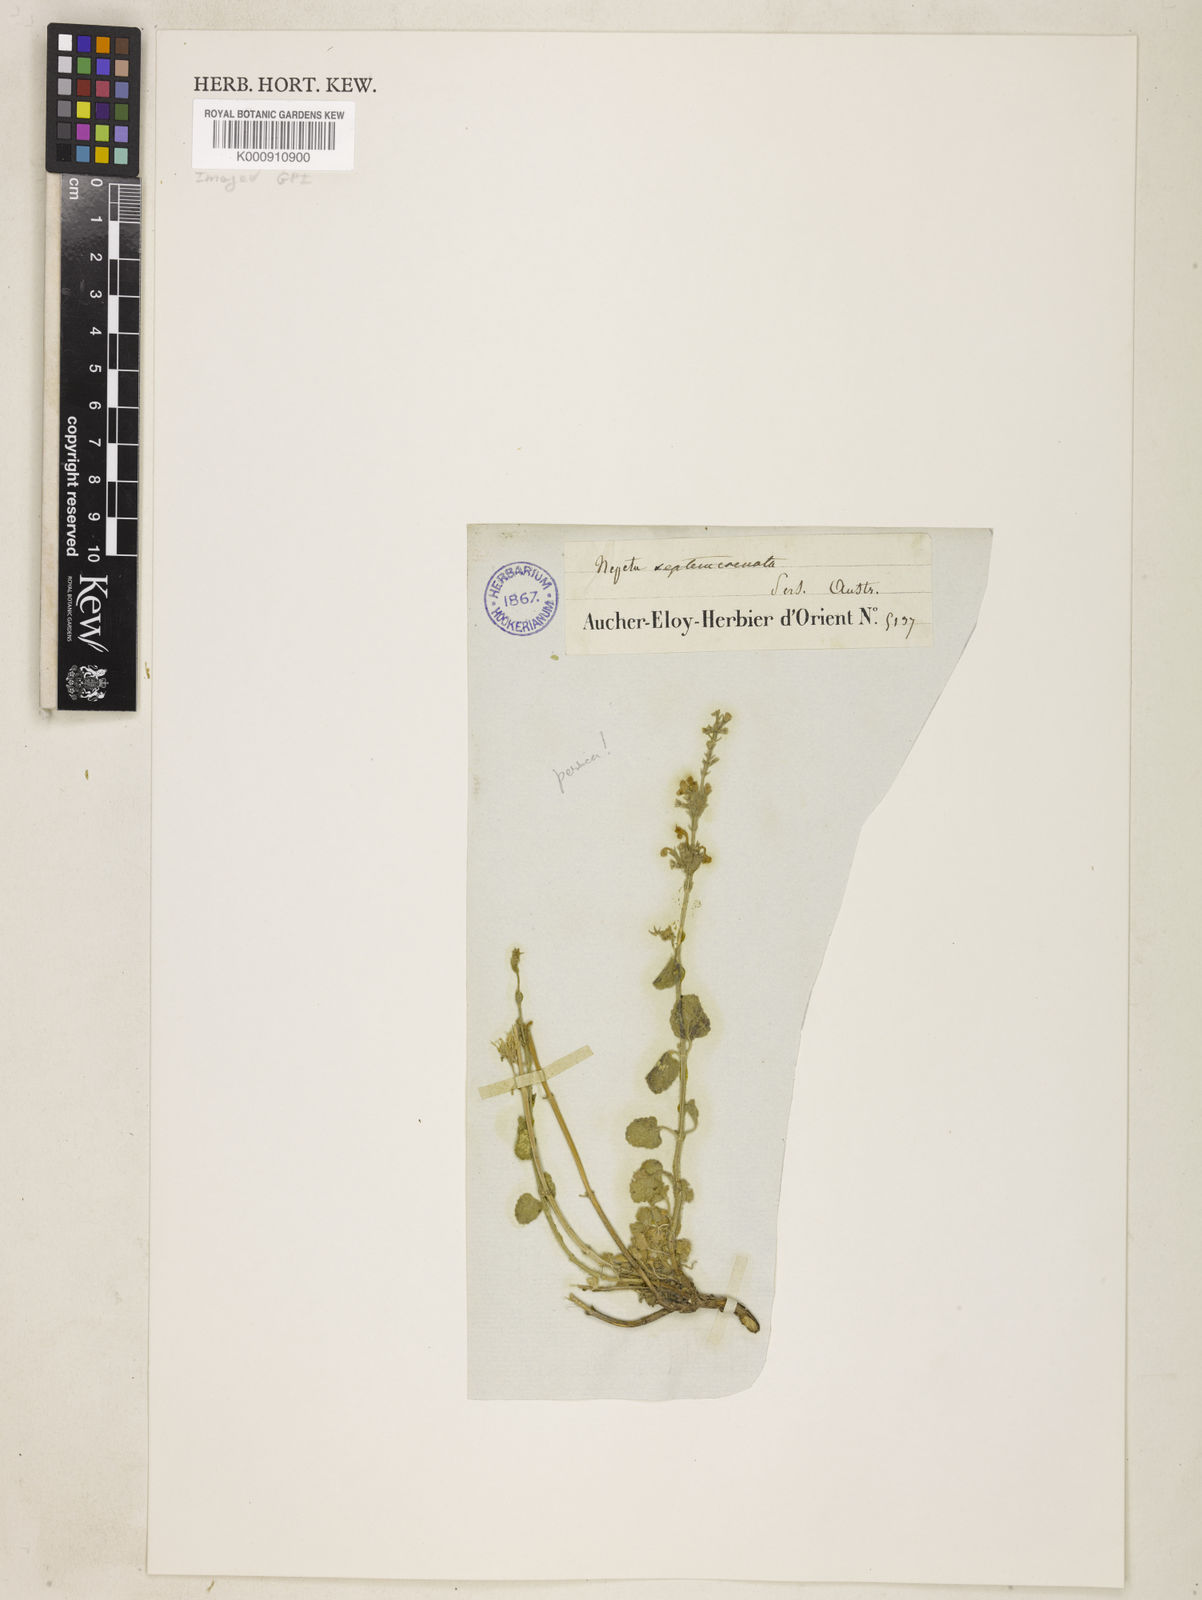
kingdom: Plantae
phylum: Tracheophyta
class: Magnoliopsida
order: Lamiales
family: Lamiaceae
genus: Nepeta
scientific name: Nepeta persica
